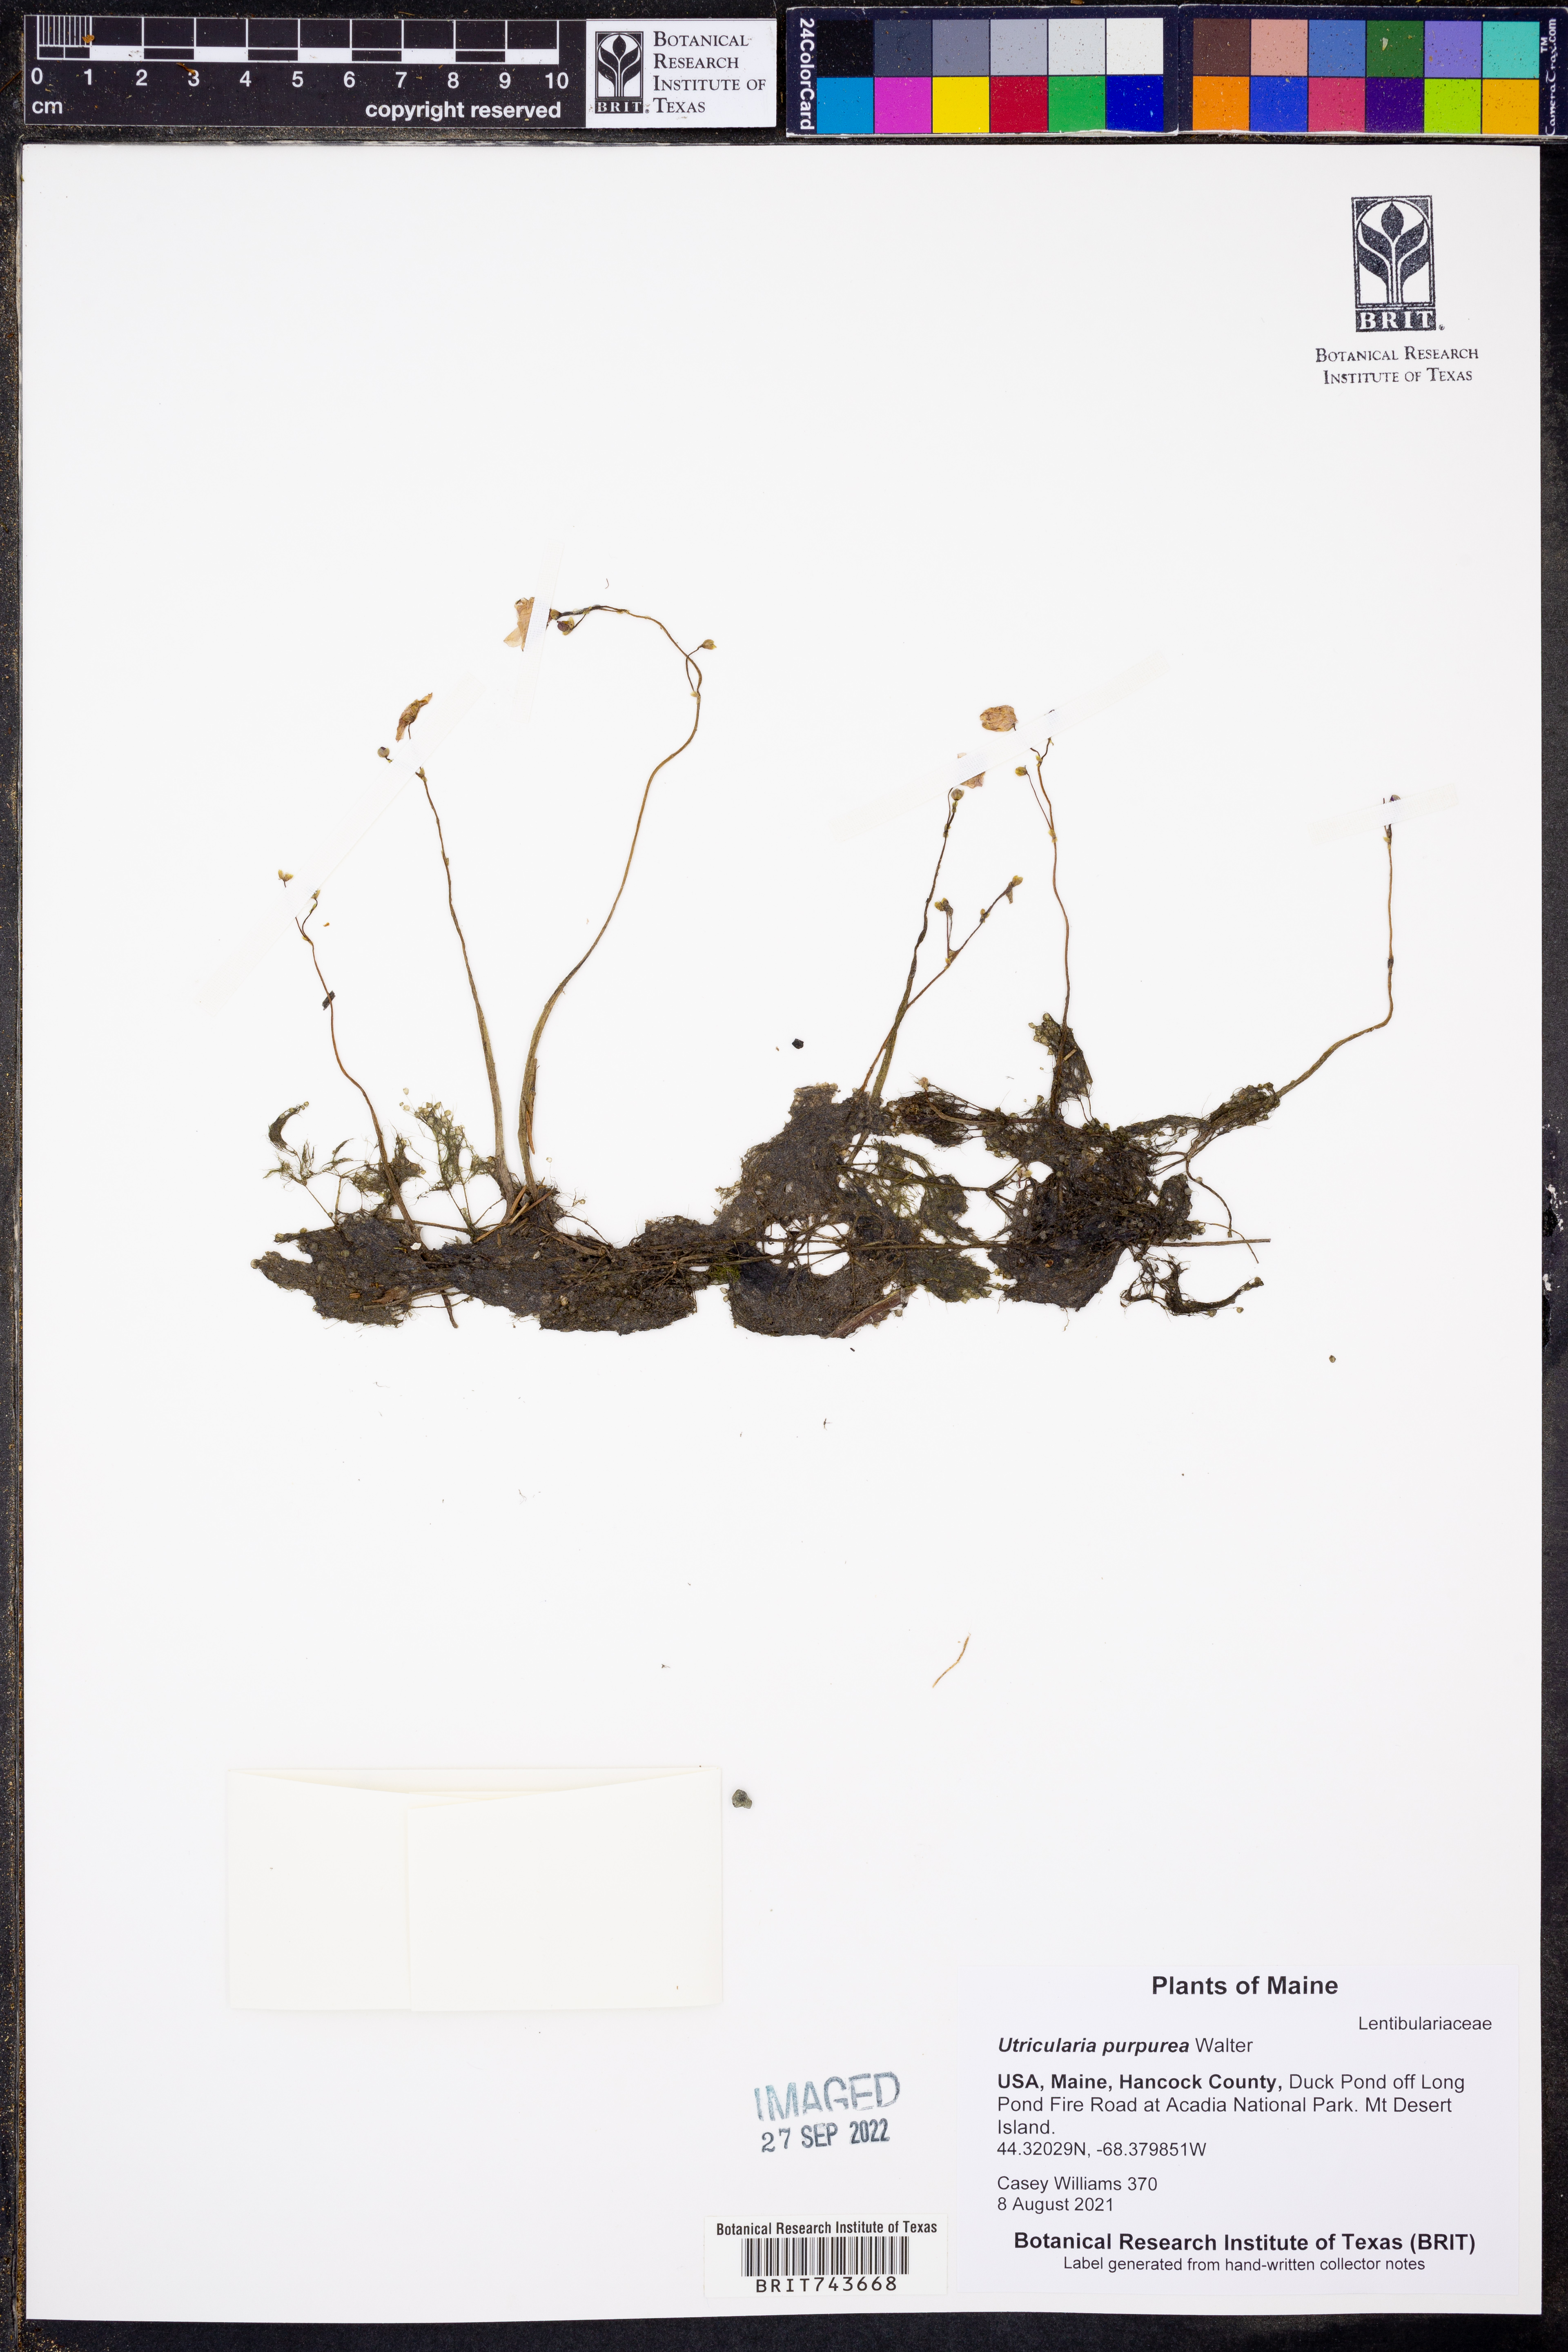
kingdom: Plantae
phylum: Tracheophyta
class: Magnoliopsida
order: Lamiales
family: Lentibulariaceae
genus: Utricularia
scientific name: Utricularia purpurea
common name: Eastern purple bladderwort
